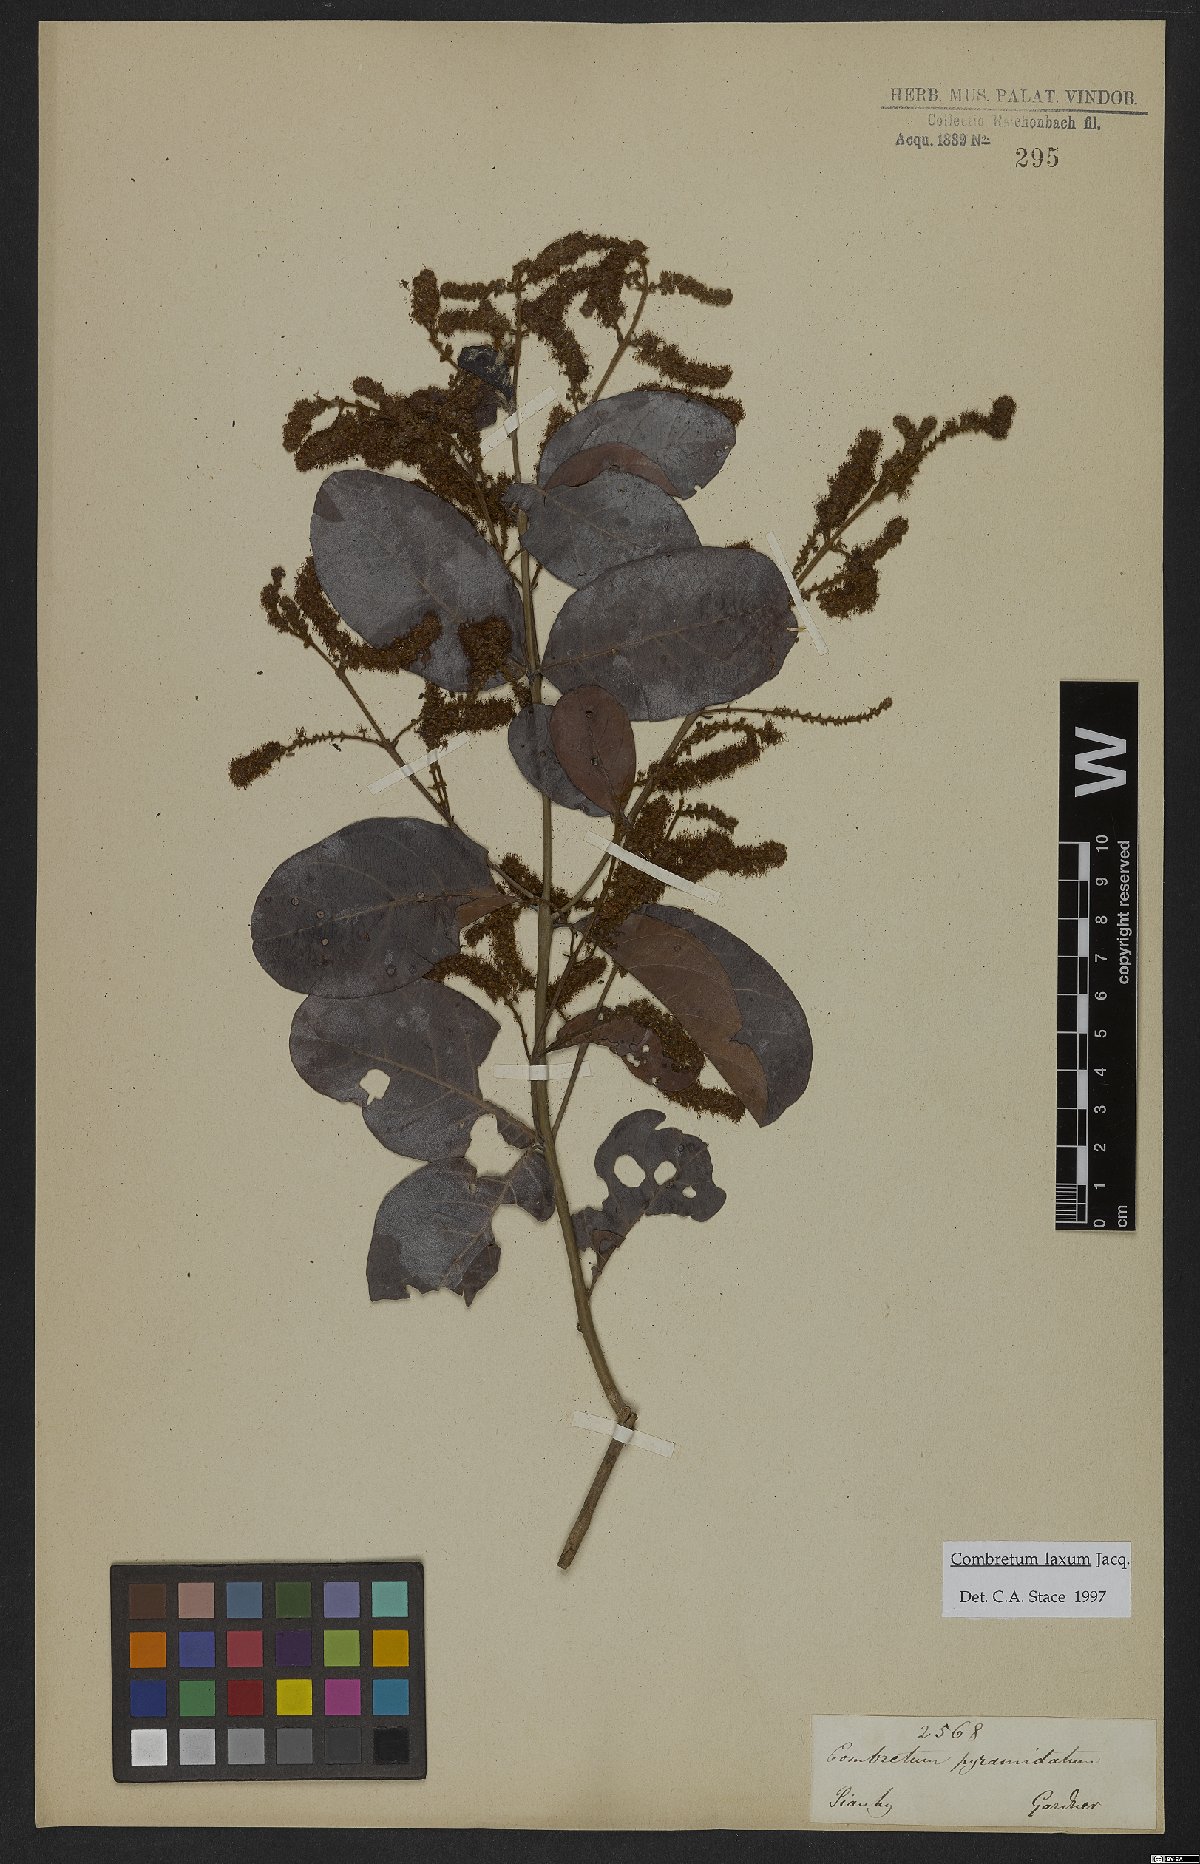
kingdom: Plantae
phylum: Tracheophyta
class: Magnoliopsida
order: Myrtales
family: Combretaceae
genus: Combretum
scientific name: Combretum laxum
